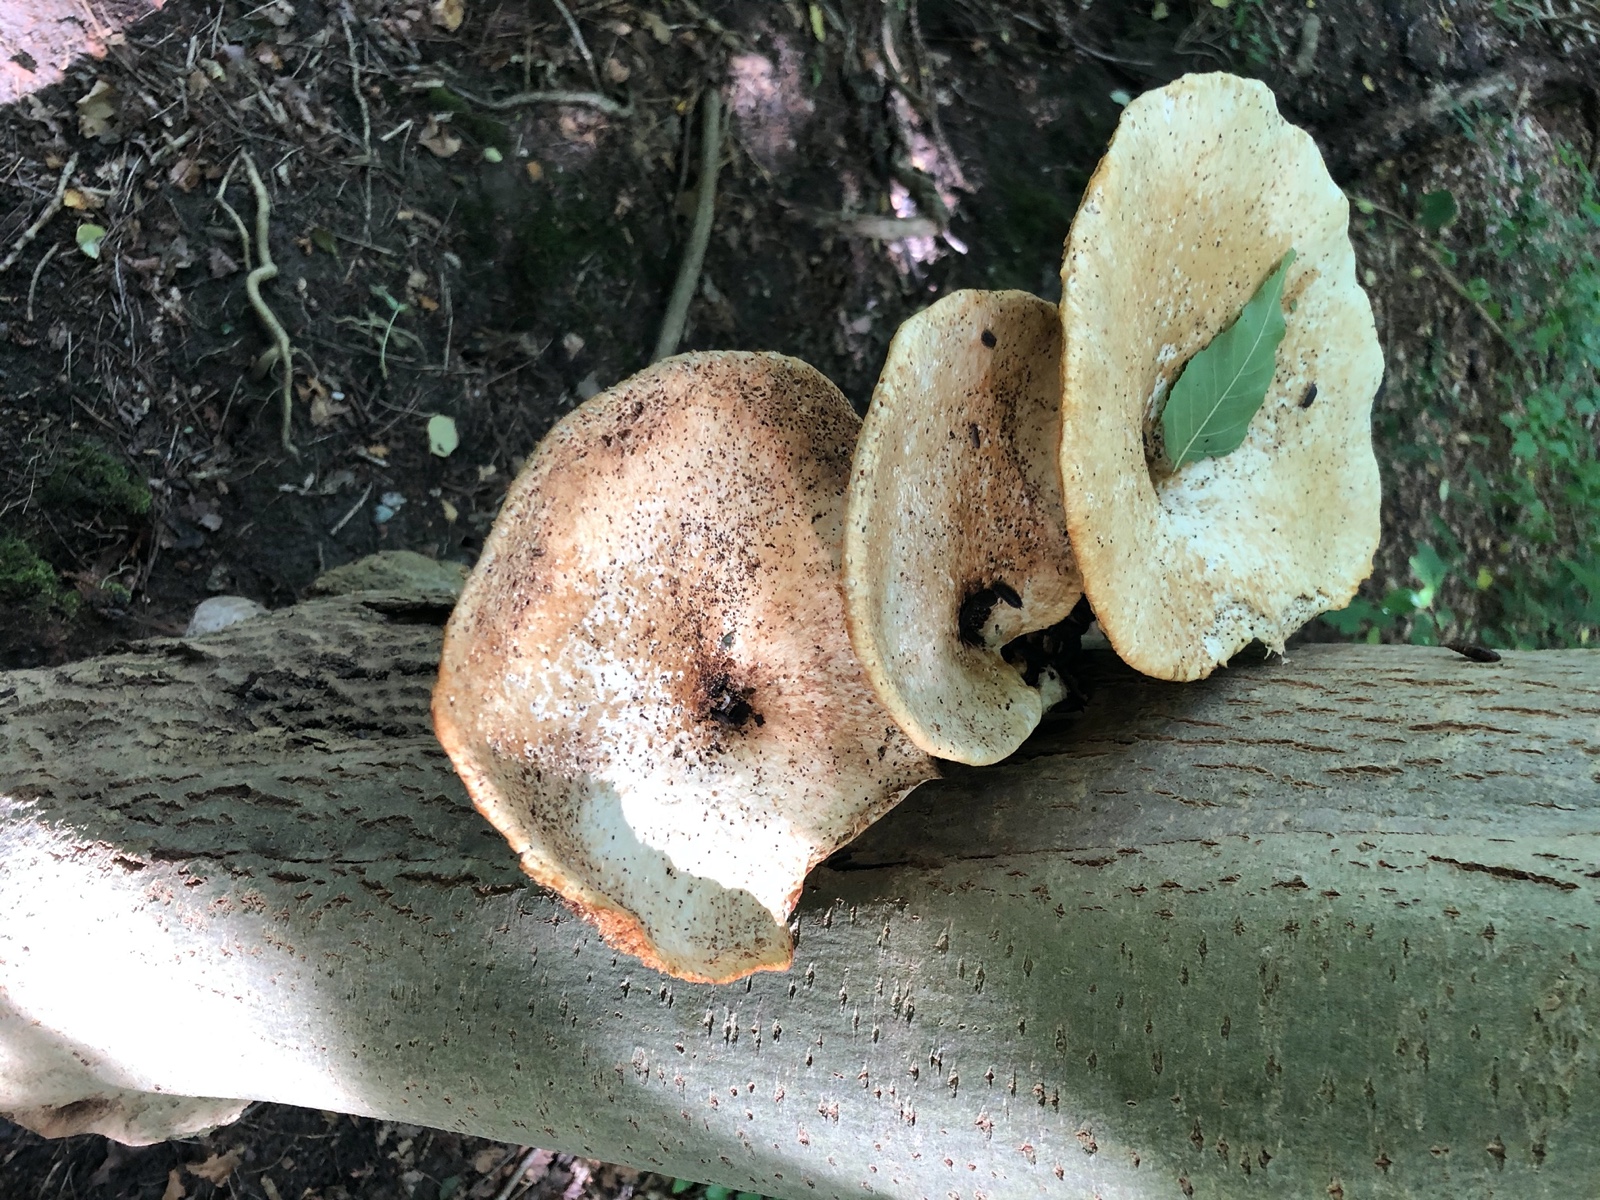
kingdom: Fungi
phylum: Basidiomycota
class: Agaricomycetes
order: Polyporales
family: Polyporaceae
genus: Cerioporus
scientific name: Cerioporus squamosus
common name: skællet stilkporesvamp
